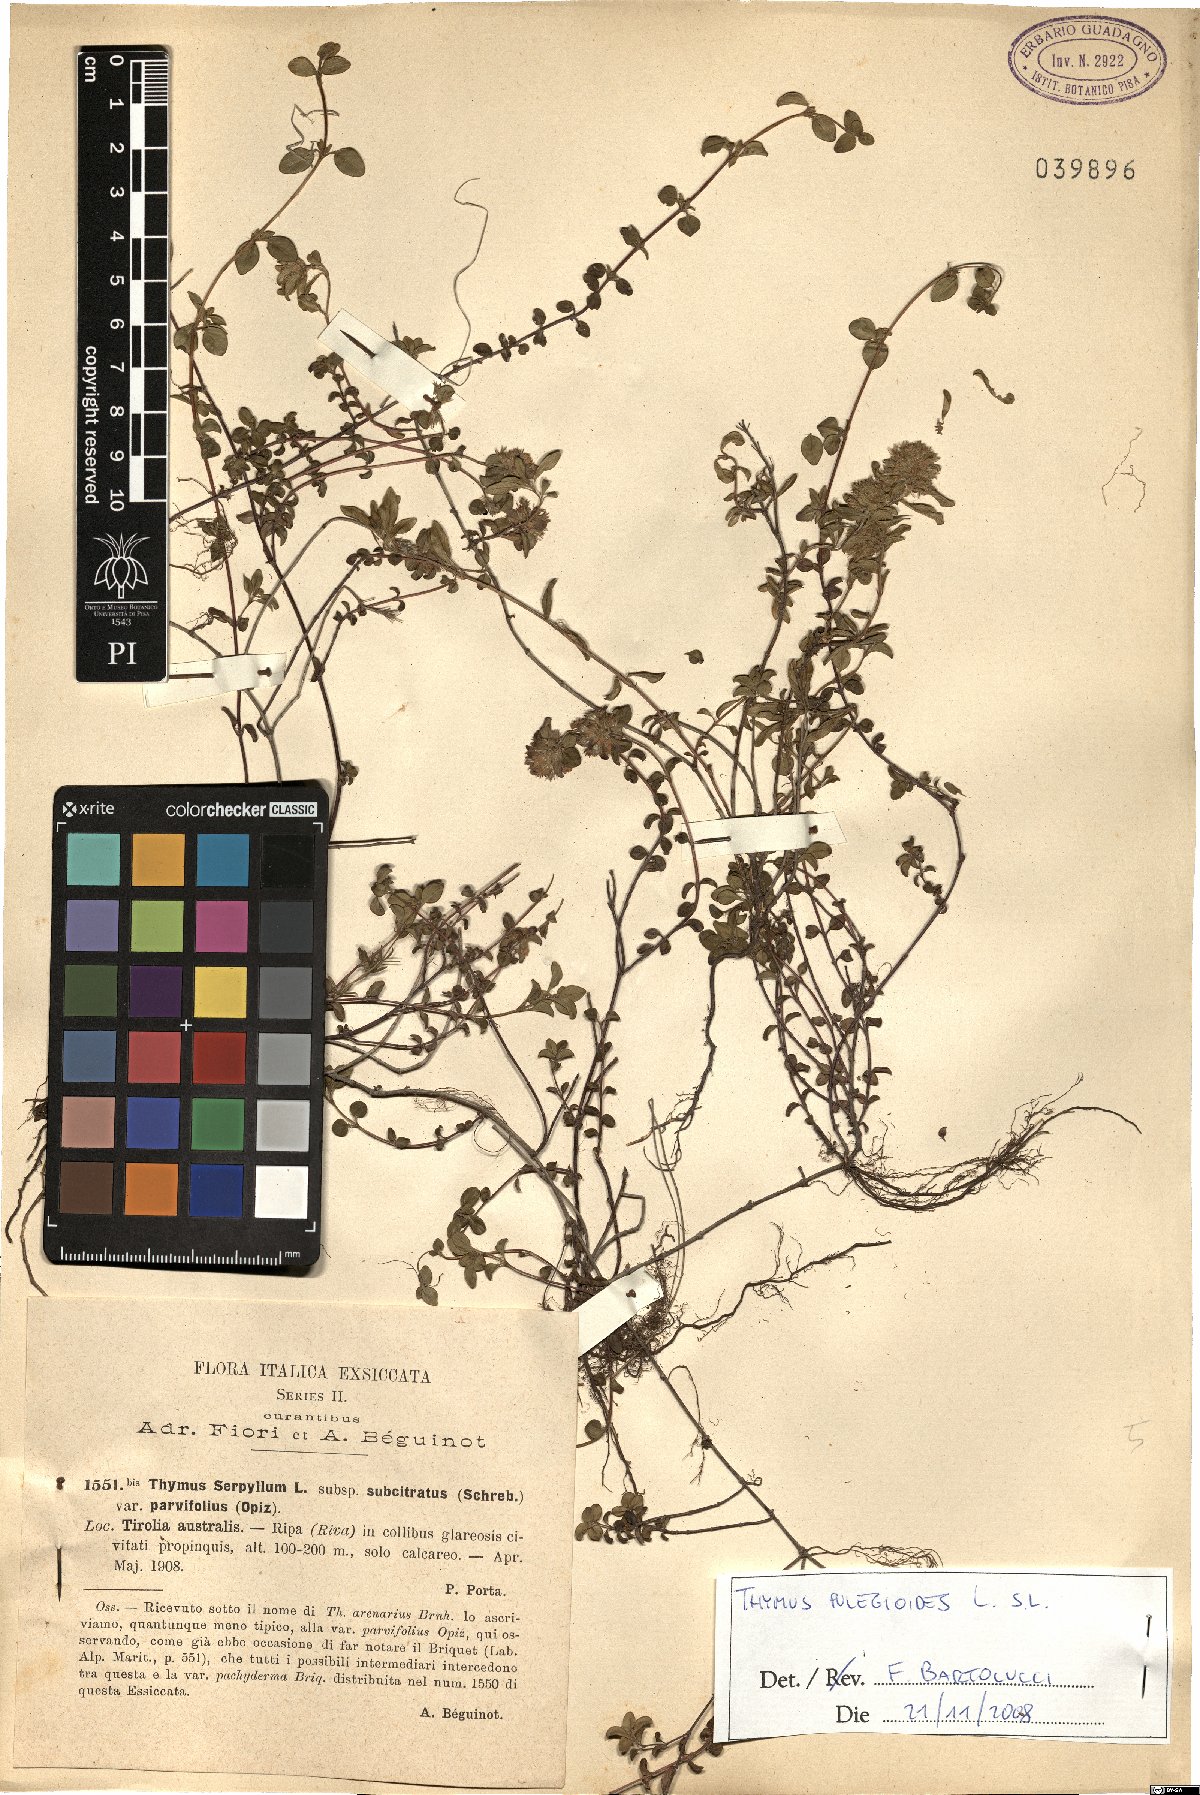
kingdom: Plantae
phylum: Tracheophyta
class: Magnoliopsida
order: Lamiales
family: Lamiaceae
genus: Thymus
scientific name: Thymus pulegioides
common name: Large thyme
